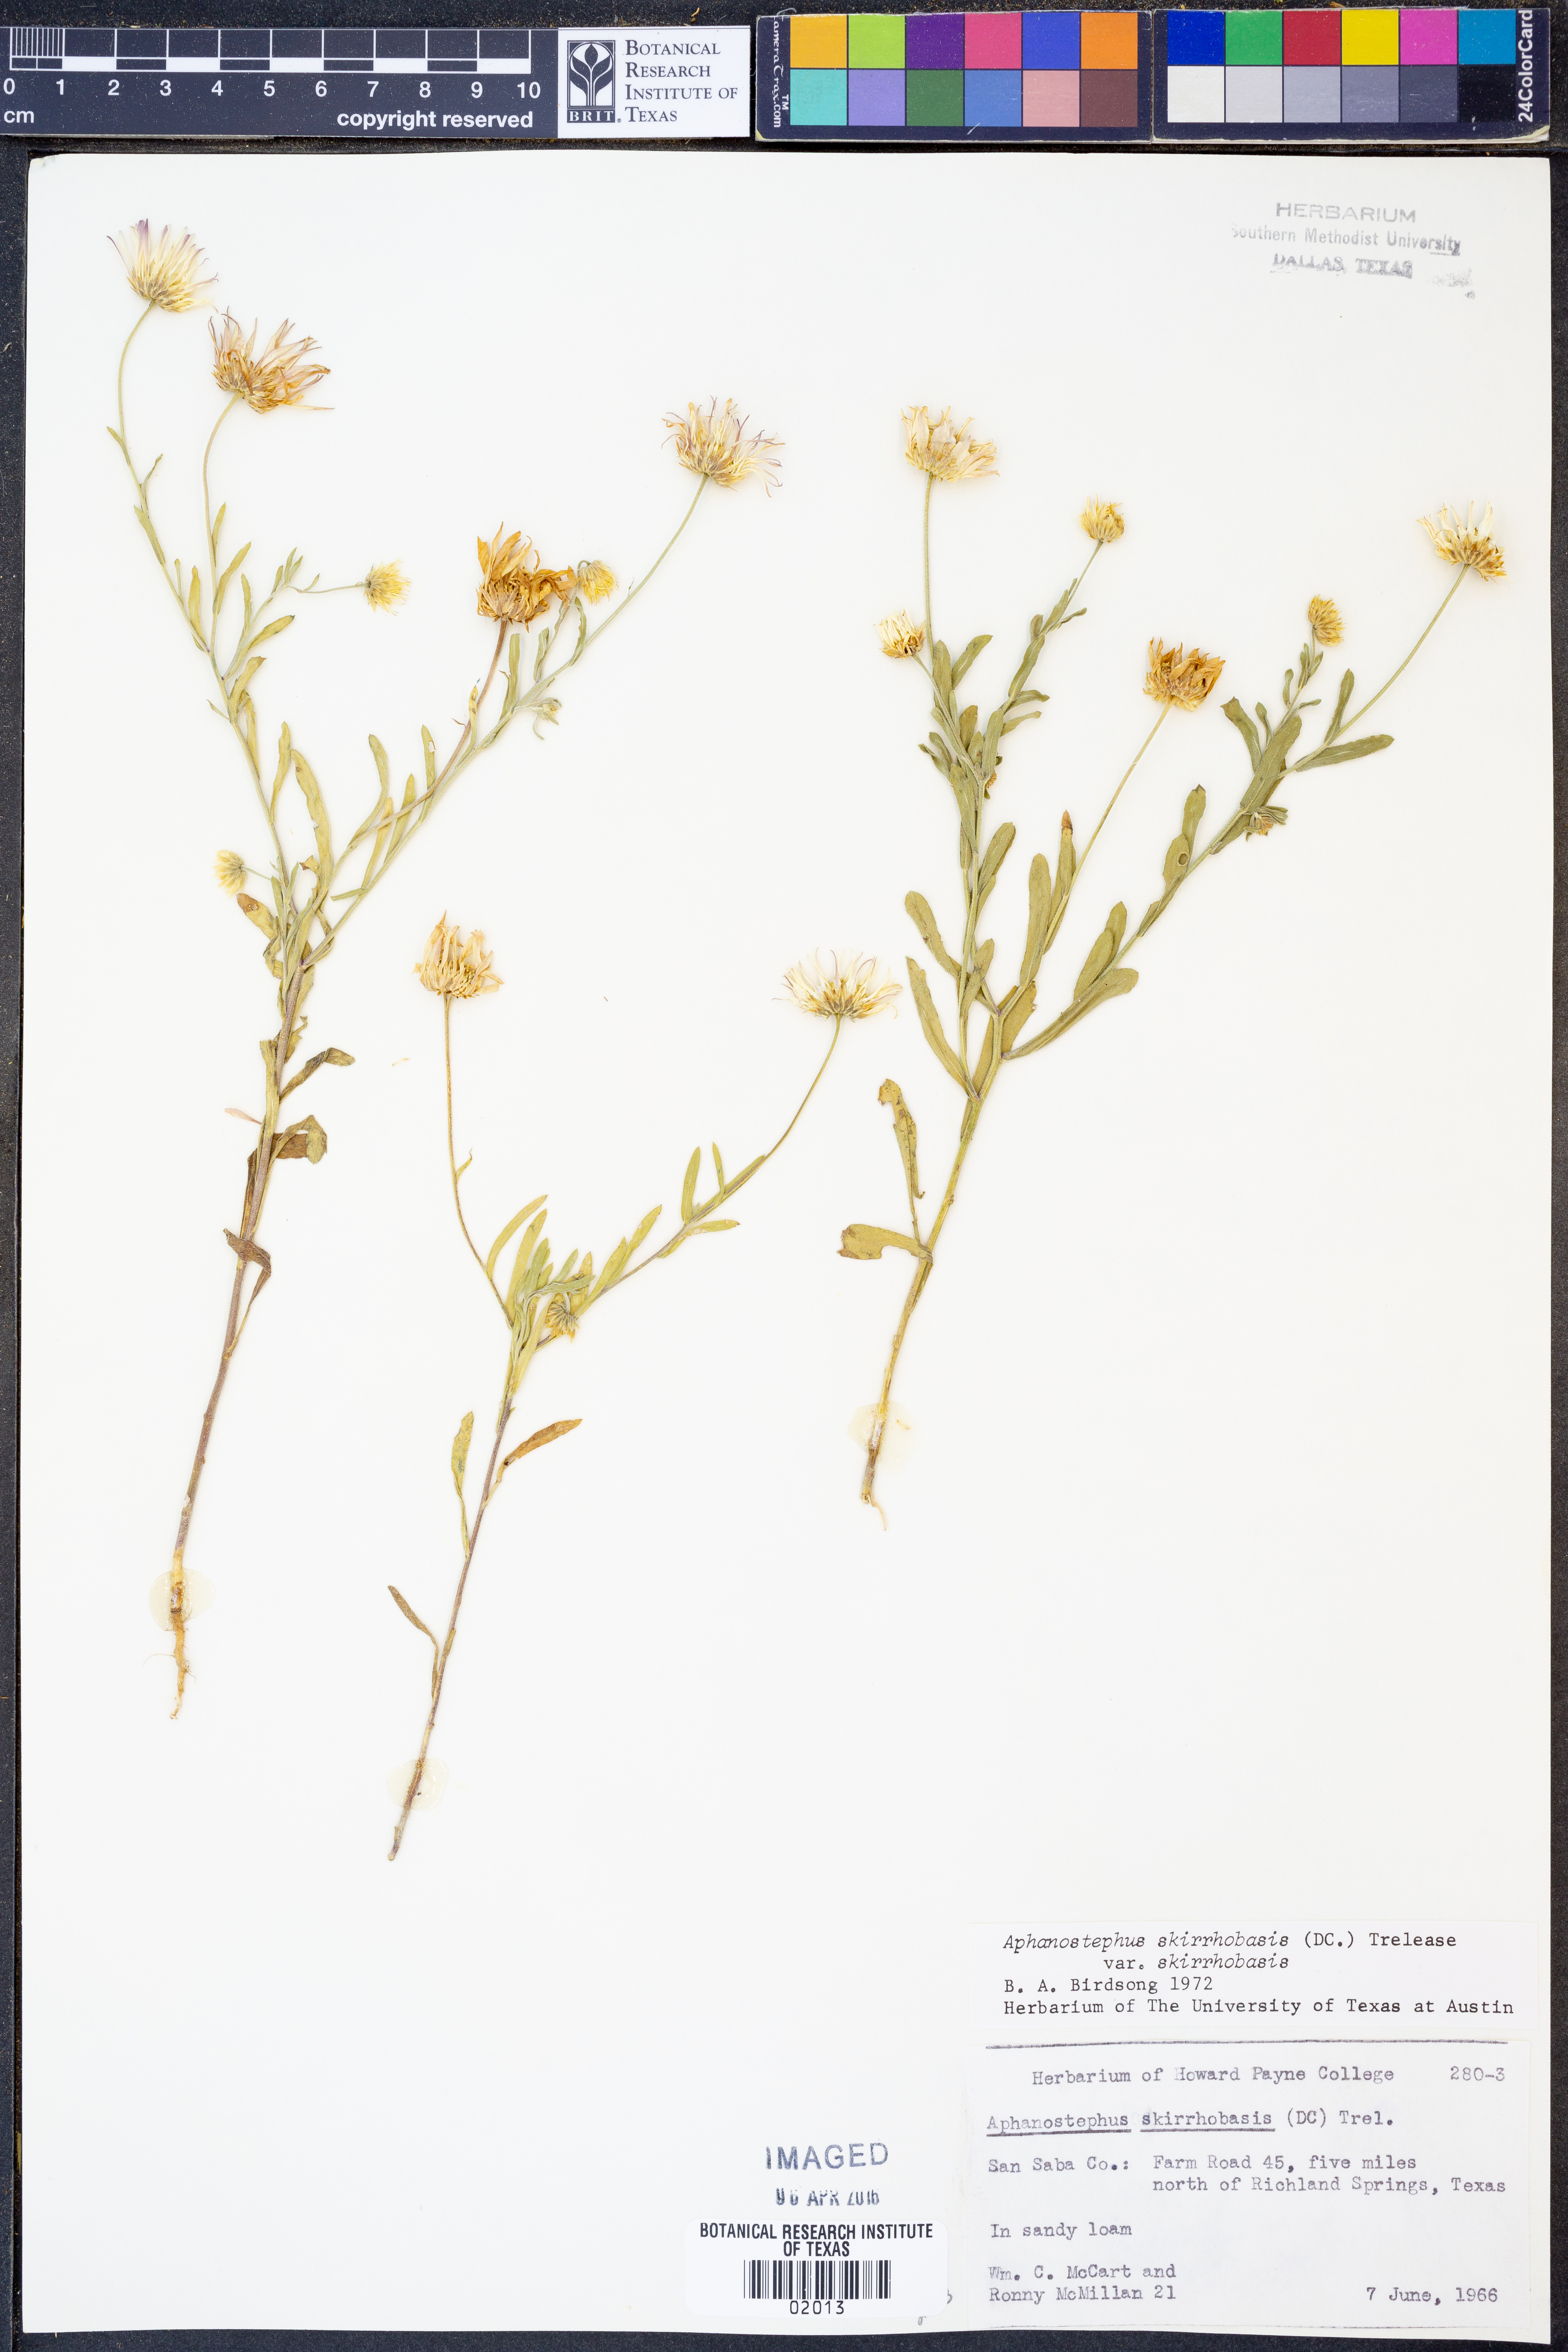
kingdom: Plantae
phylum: Tracheophyta
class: Magnoliopsida
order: Asterales
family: Asteraceae
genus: Aphanostephus
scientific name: Aphanostephus skirrhobasis
